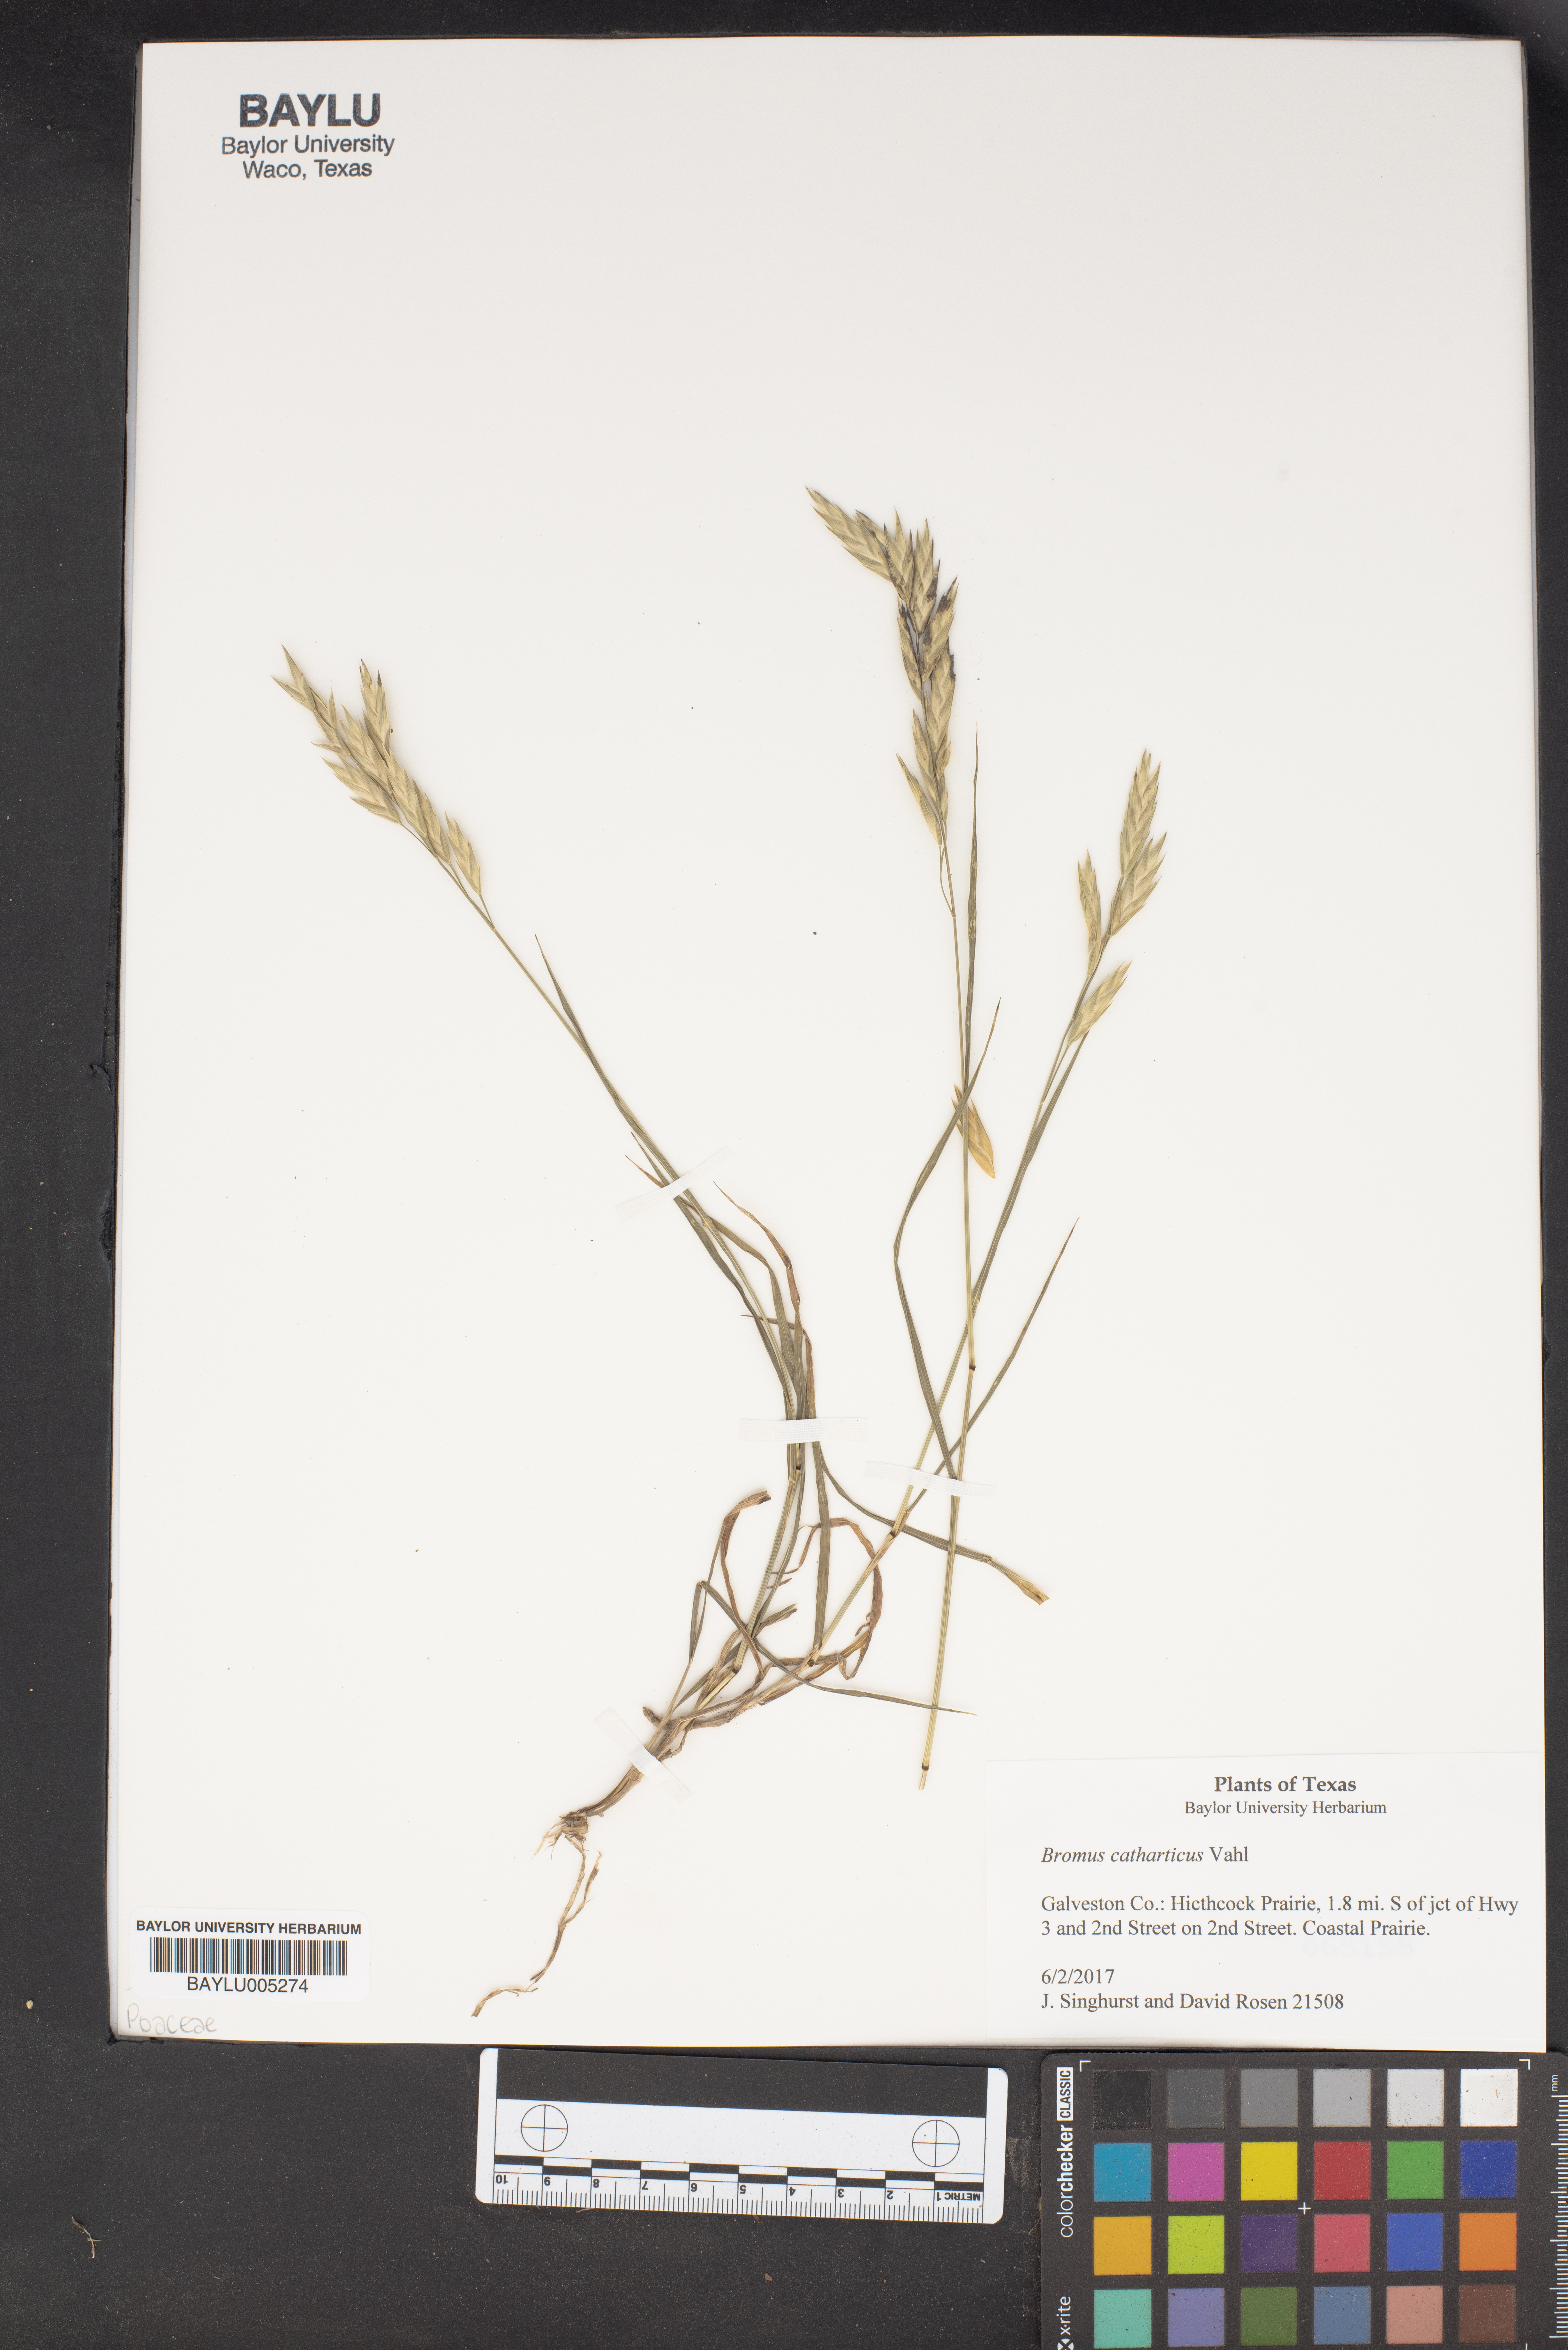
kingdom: Plantae
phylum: Tracheophyta
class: Liliopsida
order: Poales
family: Poaceae
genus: Bromus
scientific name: Bromus catharticus
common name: Rescuegrass
